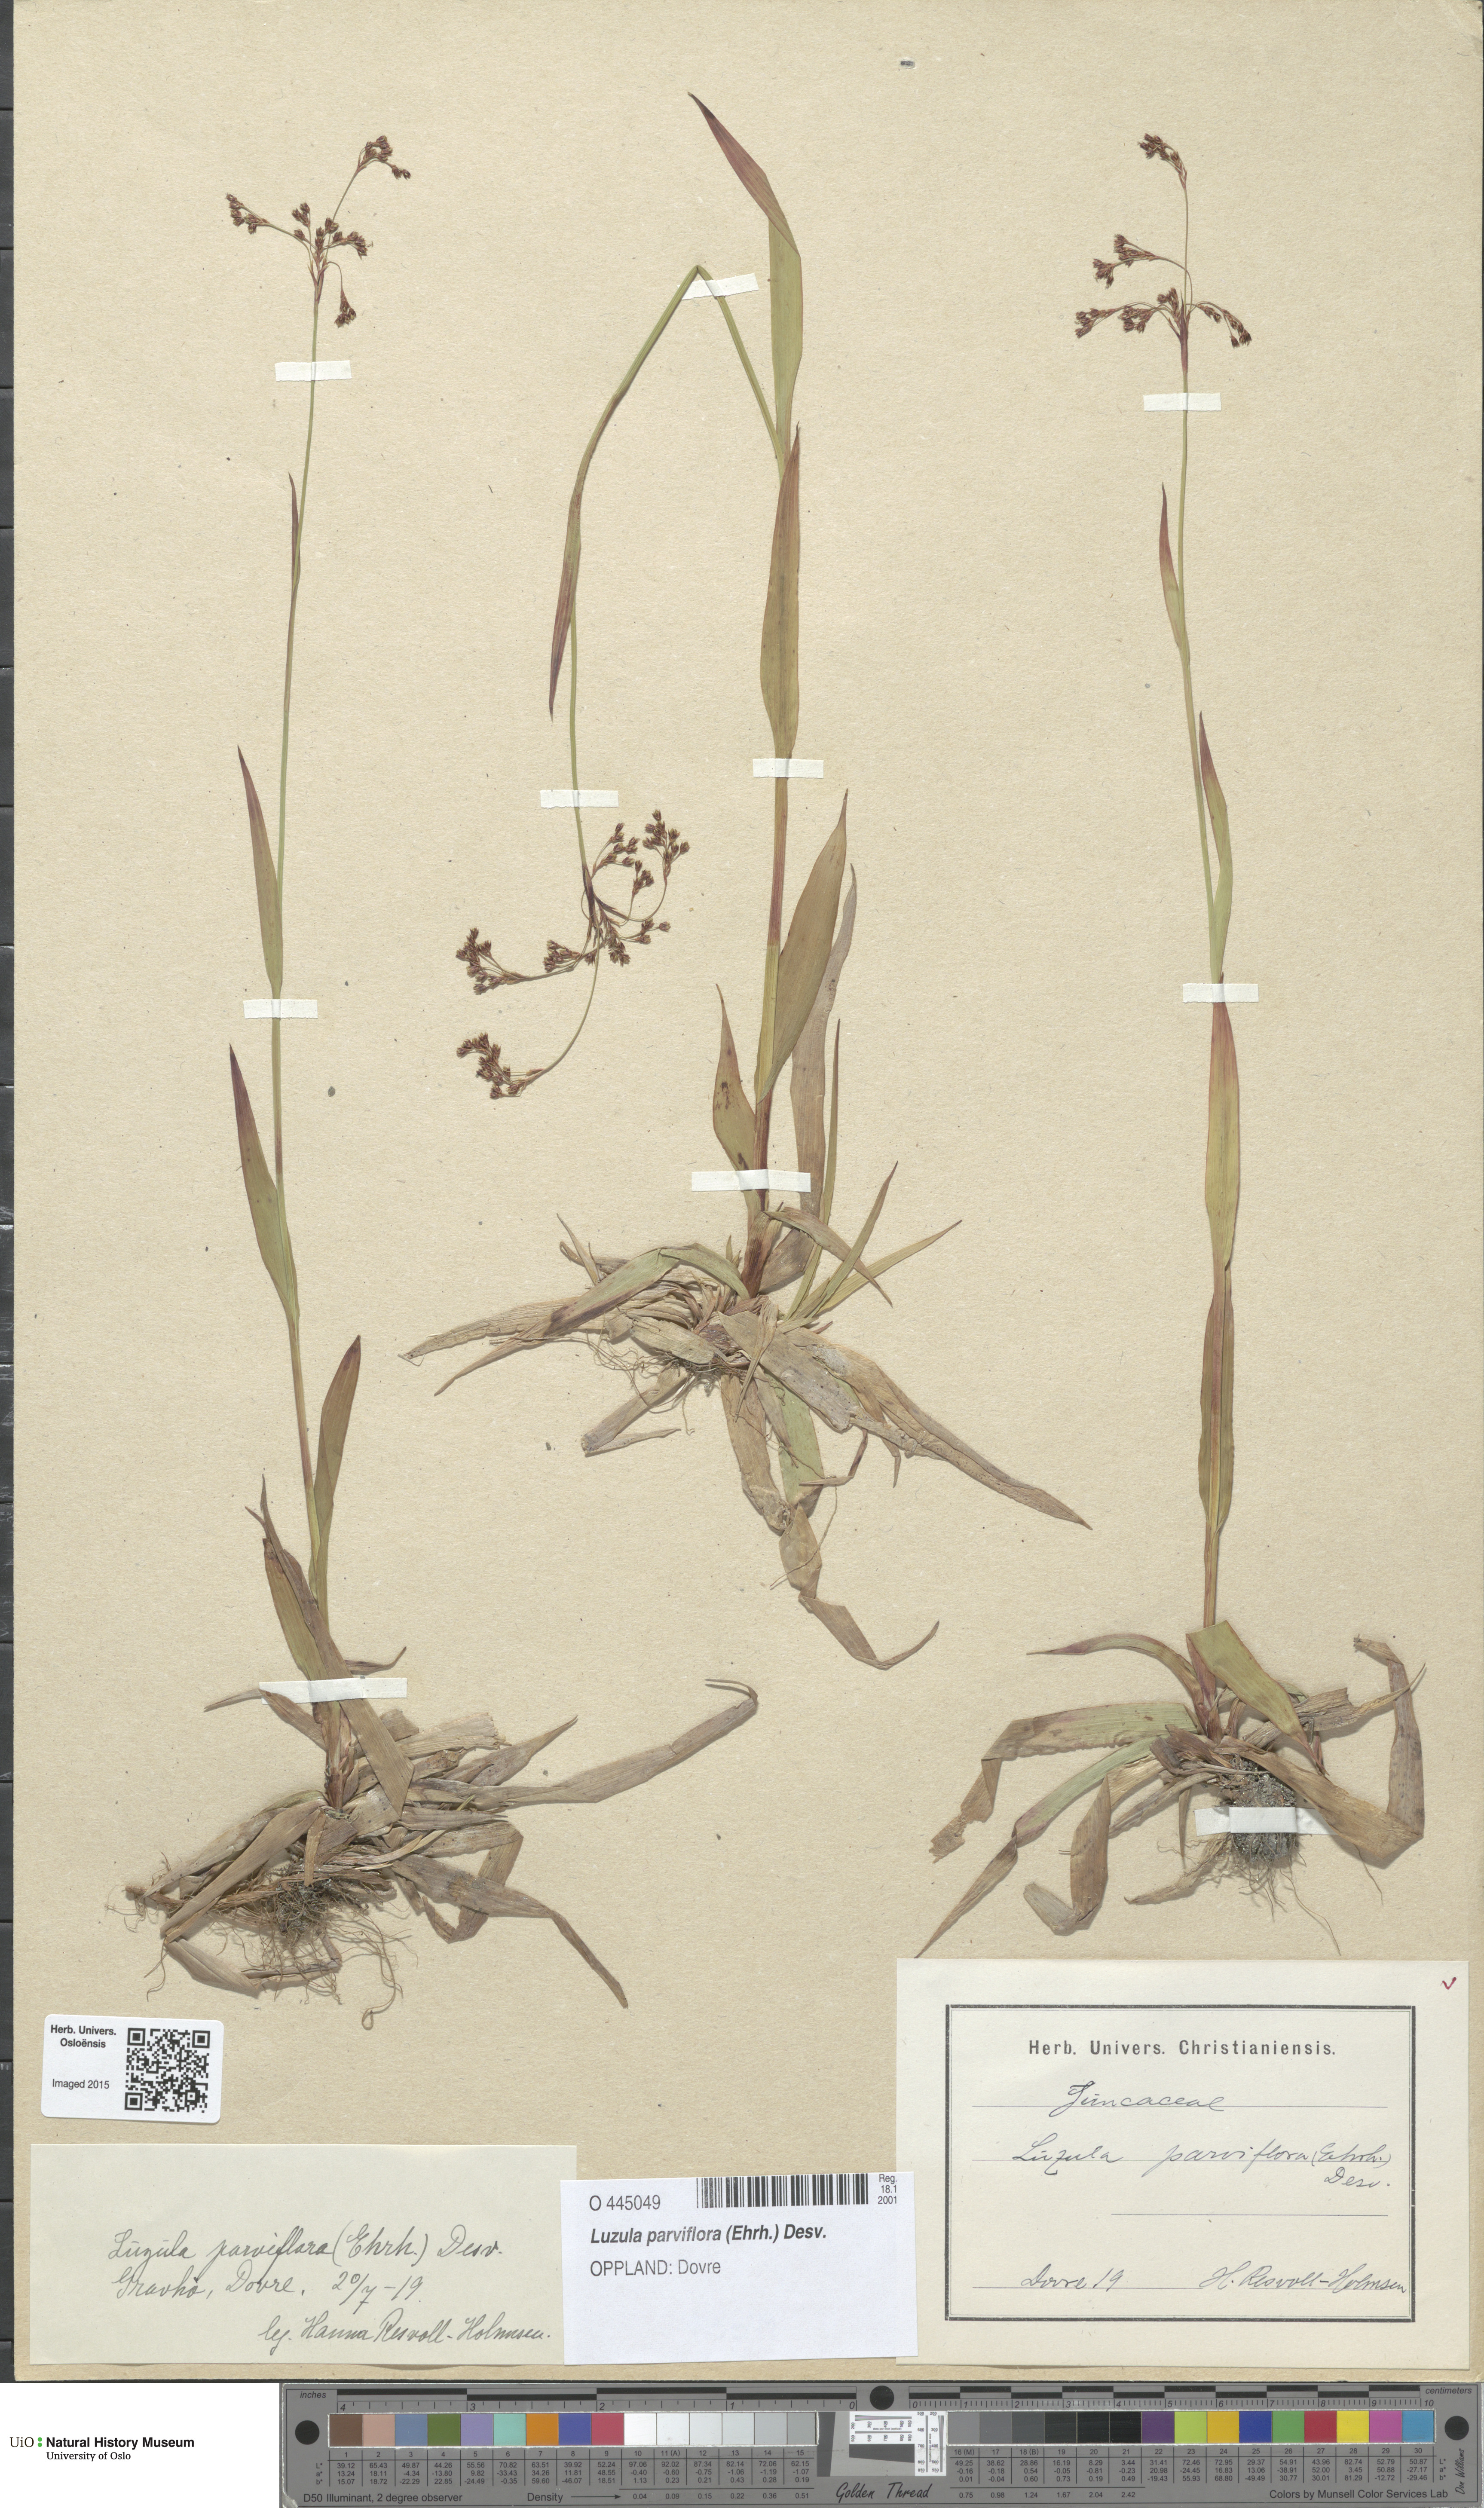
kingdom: Plantae
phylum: Tracheophyta
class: Liliopsida
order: Poales
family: Juncaceae
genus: Luzula
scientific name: Luzula parviflora
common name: Millet woodrush
